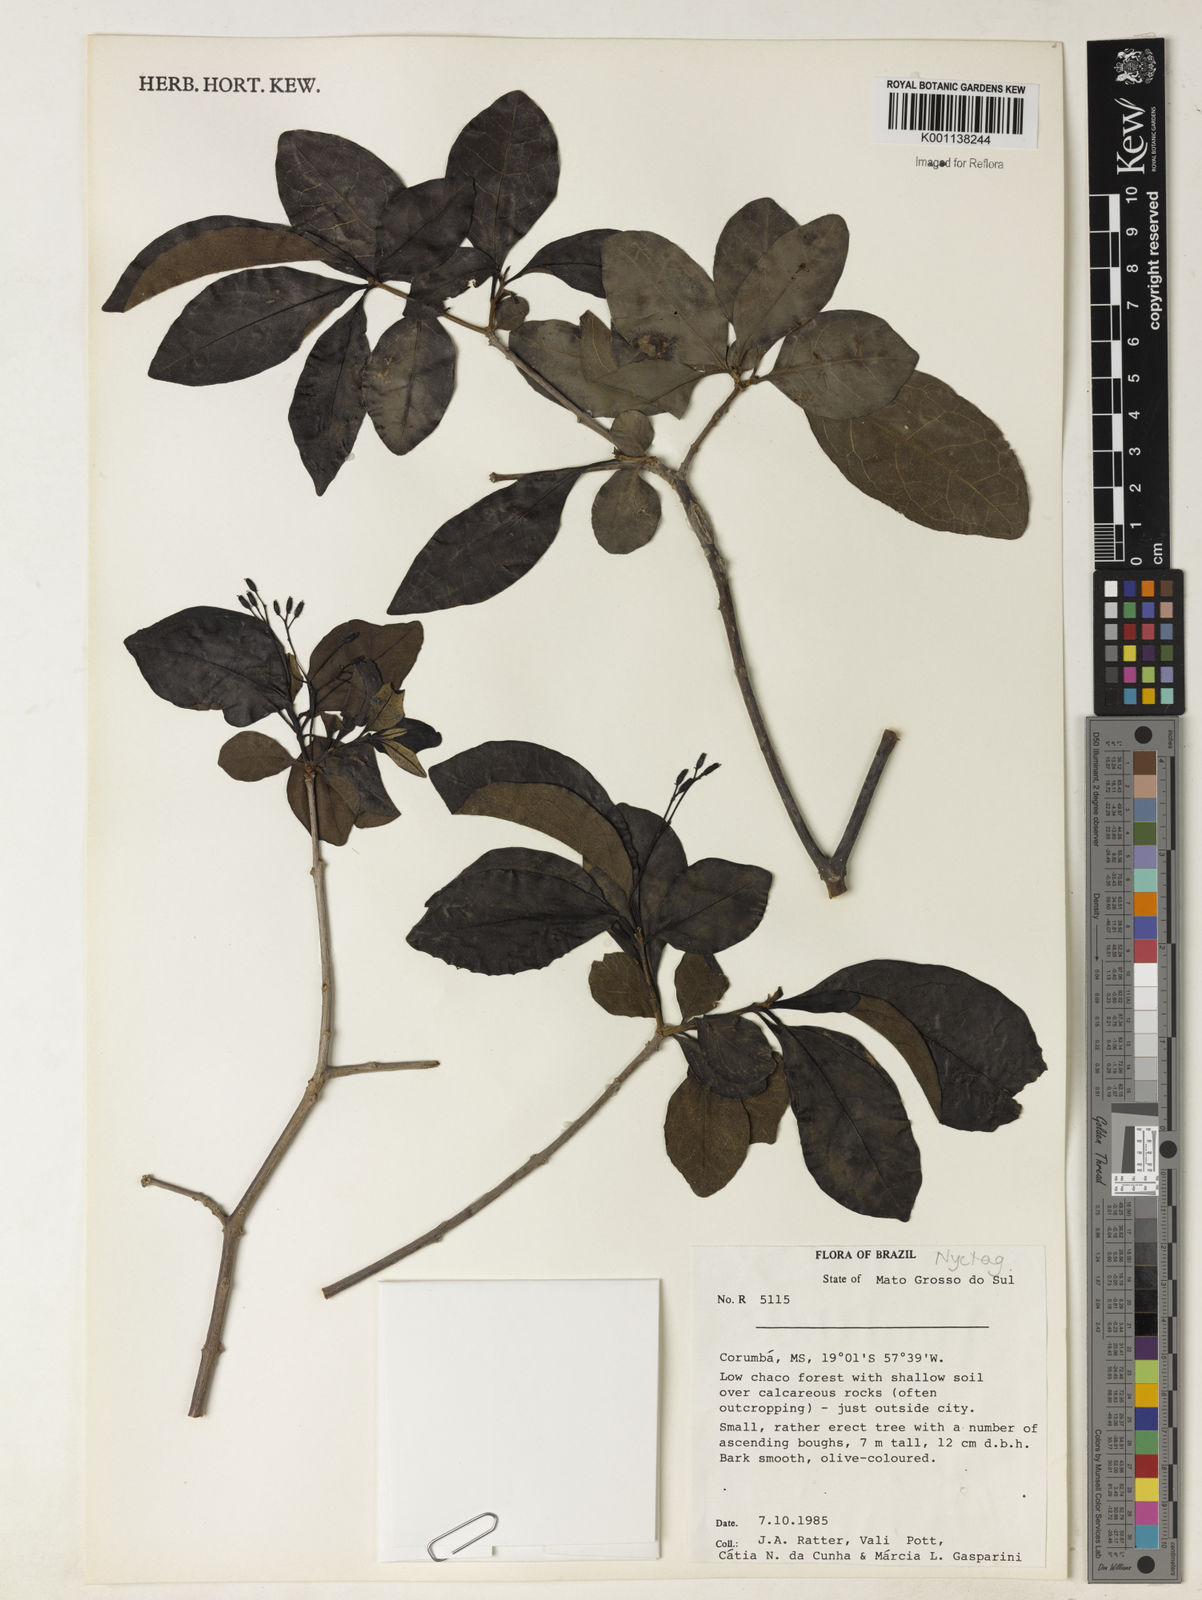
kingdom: Plantae
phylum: Tracheophyta
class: Magnoliopsida
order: Caryophyllales
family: Nyctaginaceae
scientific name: Nyctaginaceae
